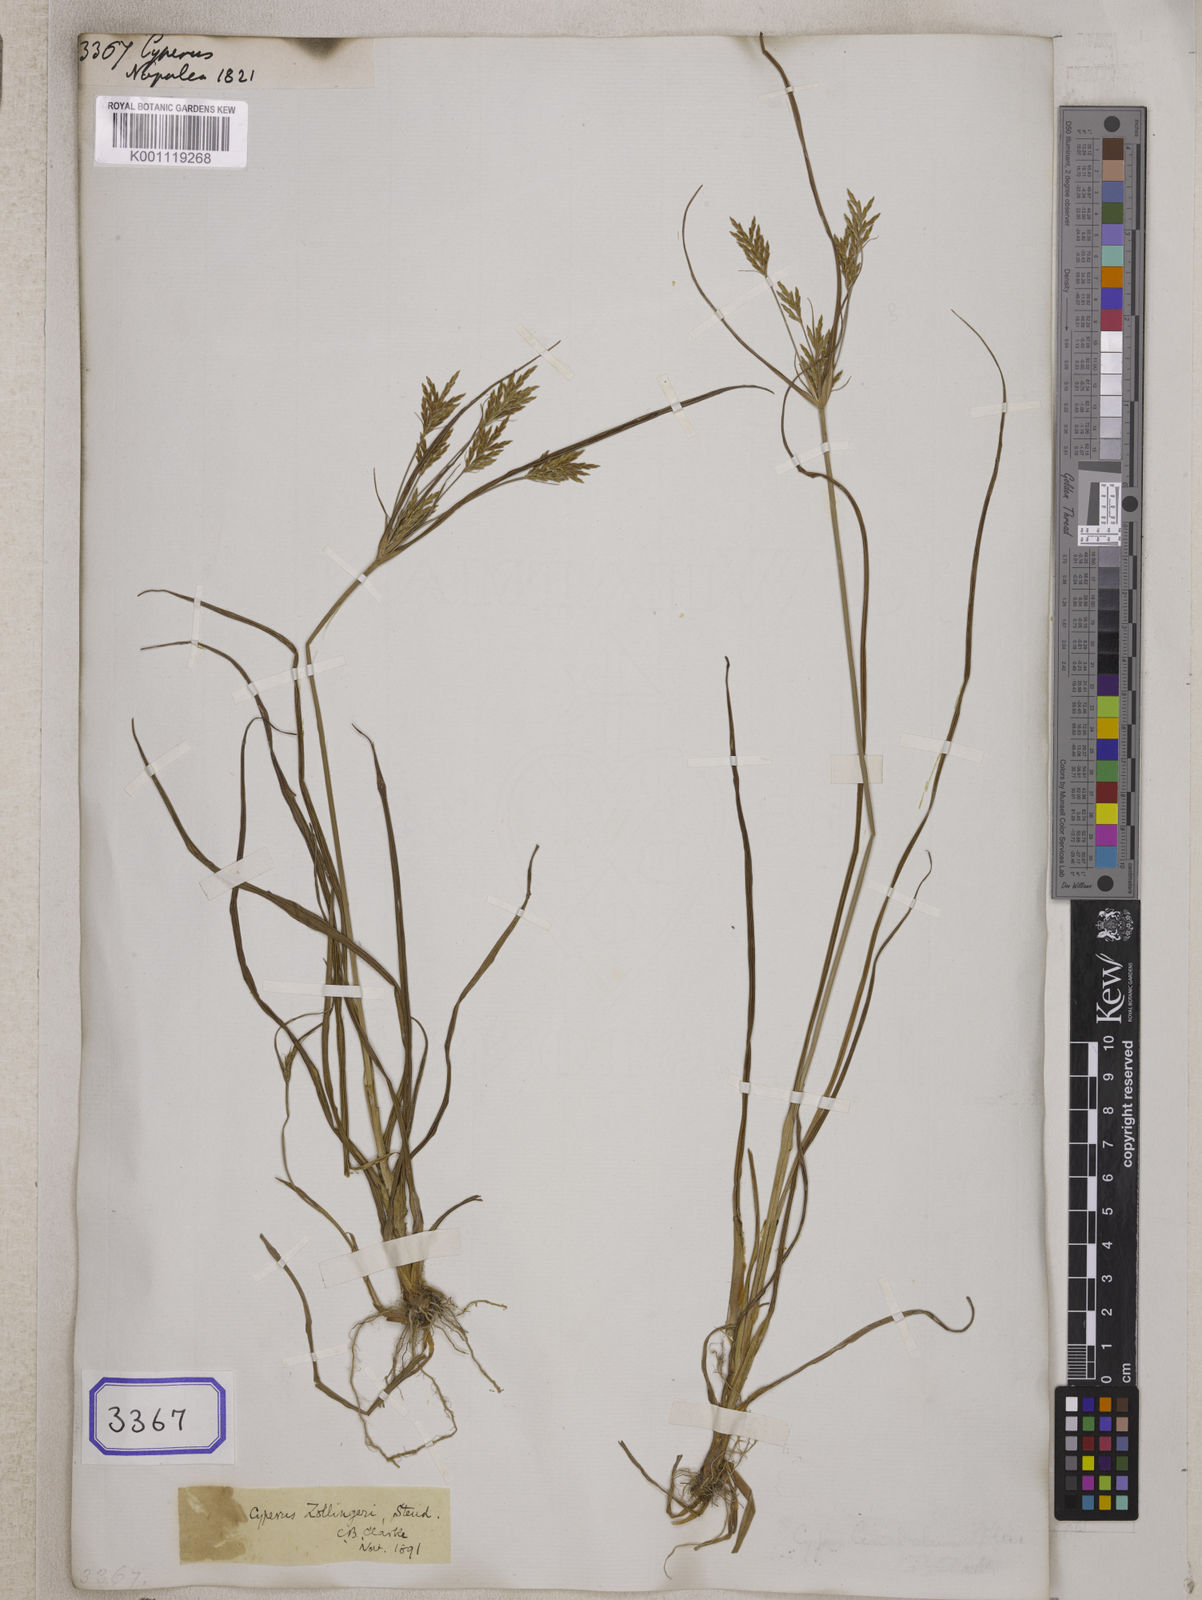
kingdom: Plantae
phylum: Tracheophyta
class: Liliopsida
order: Poales
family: Cyperaceae
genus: Cyperus
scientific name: Cyperus
